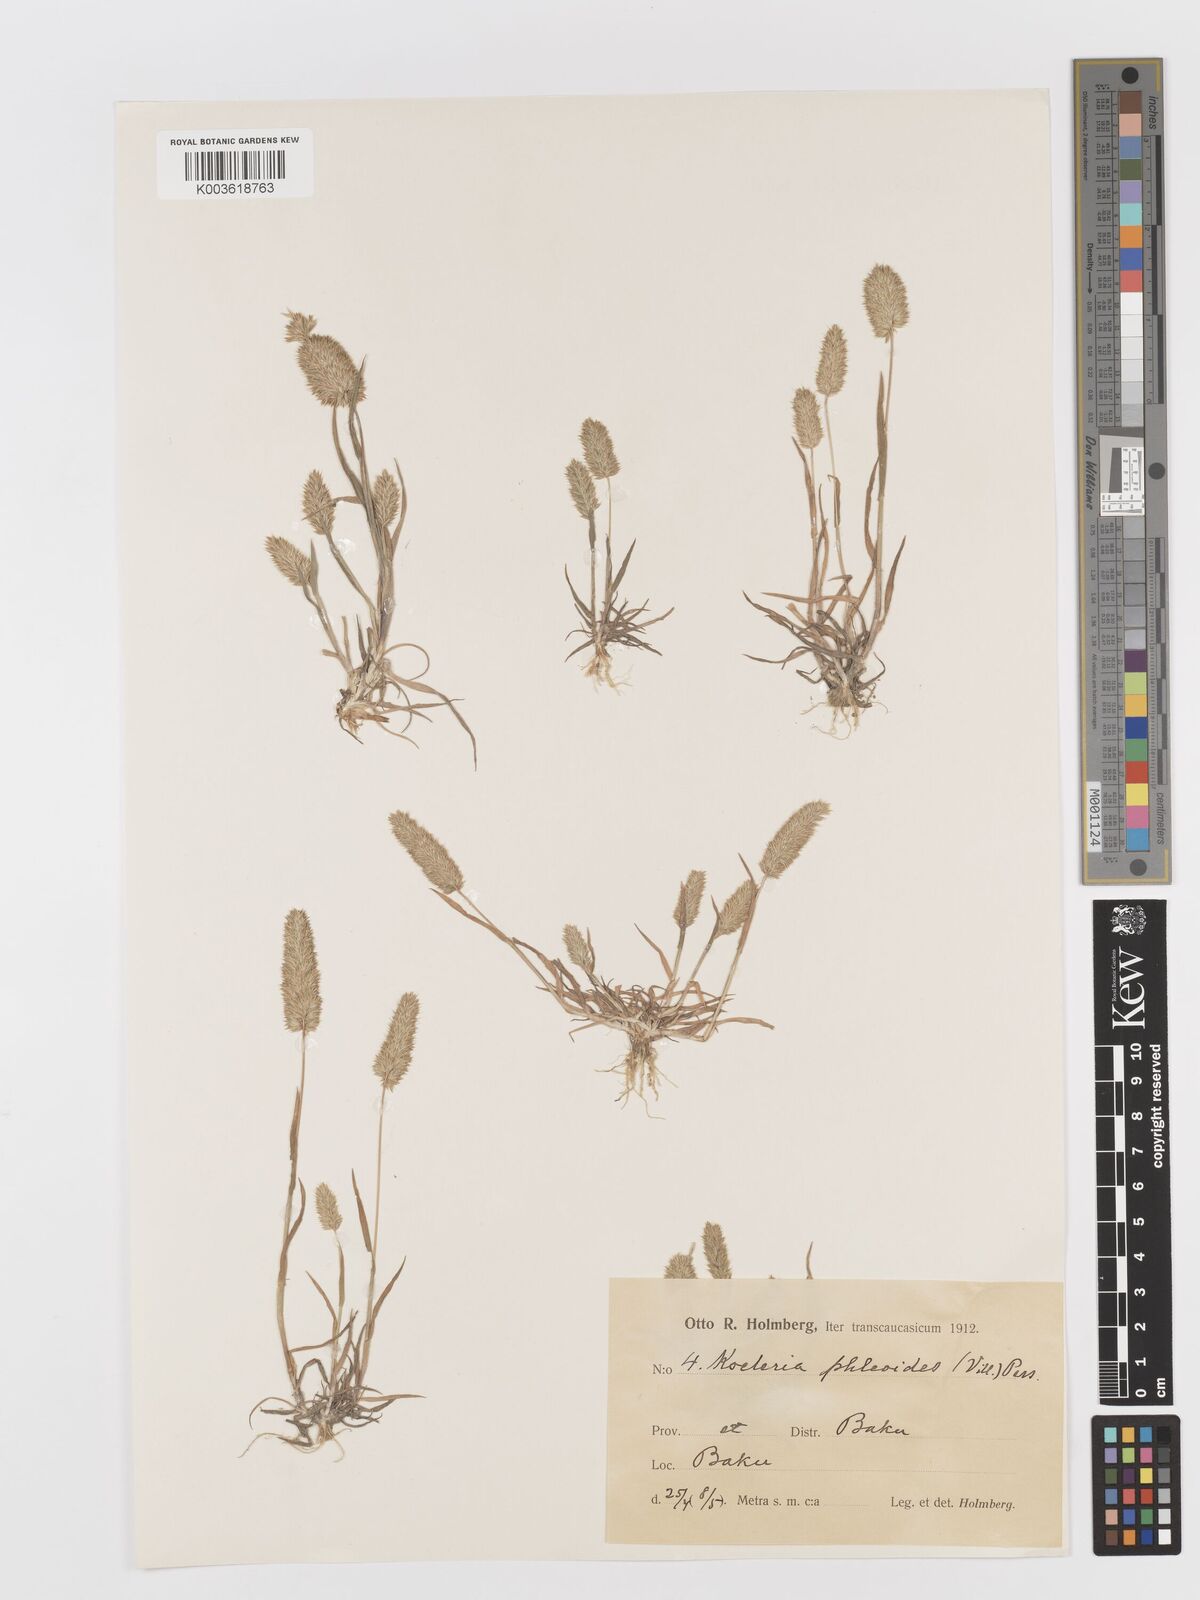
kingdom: Plantae
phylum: Tracheophyta
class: Liliopsida
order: Poales
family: Poaceae
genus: Rostraria
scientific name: Rostraria cristata
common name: Mediterranean hair-grass
